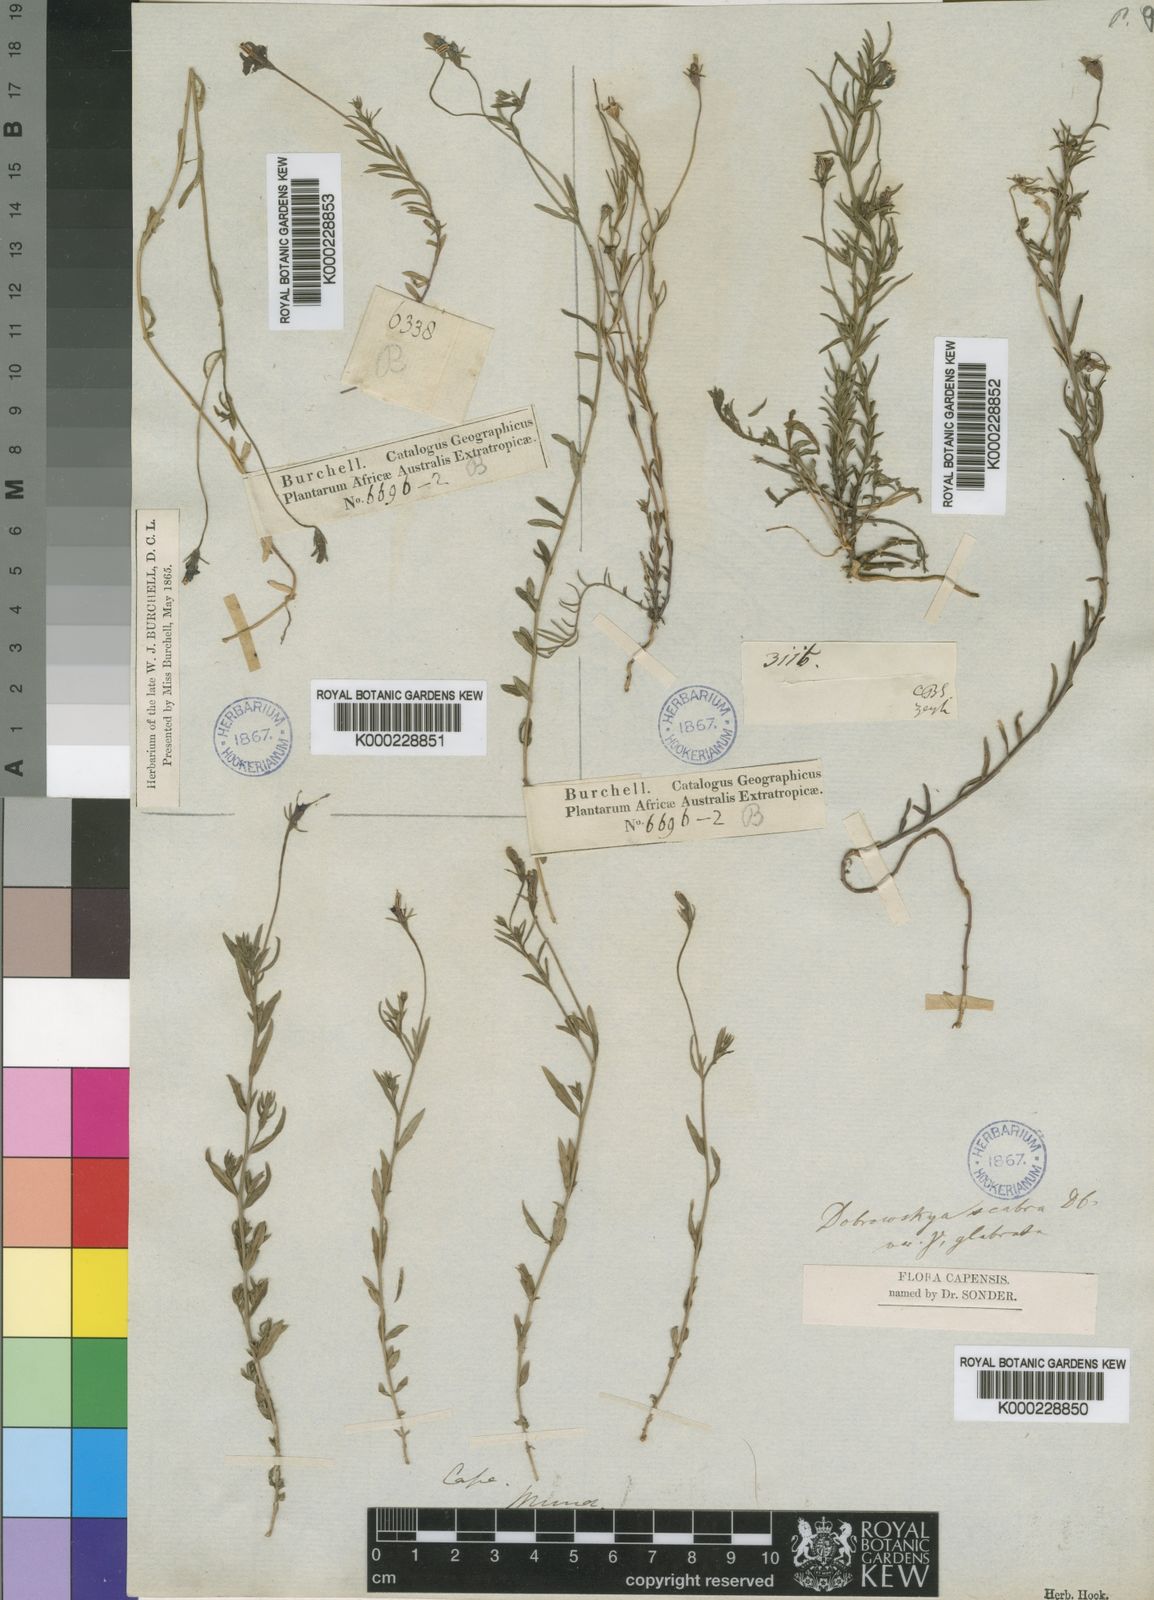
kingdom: Plantae
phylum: Tracheophyta
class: Magnoliopsida
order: Asterales
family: Campanulaceae
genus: Monopsis
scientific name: Monopsis unidentata
